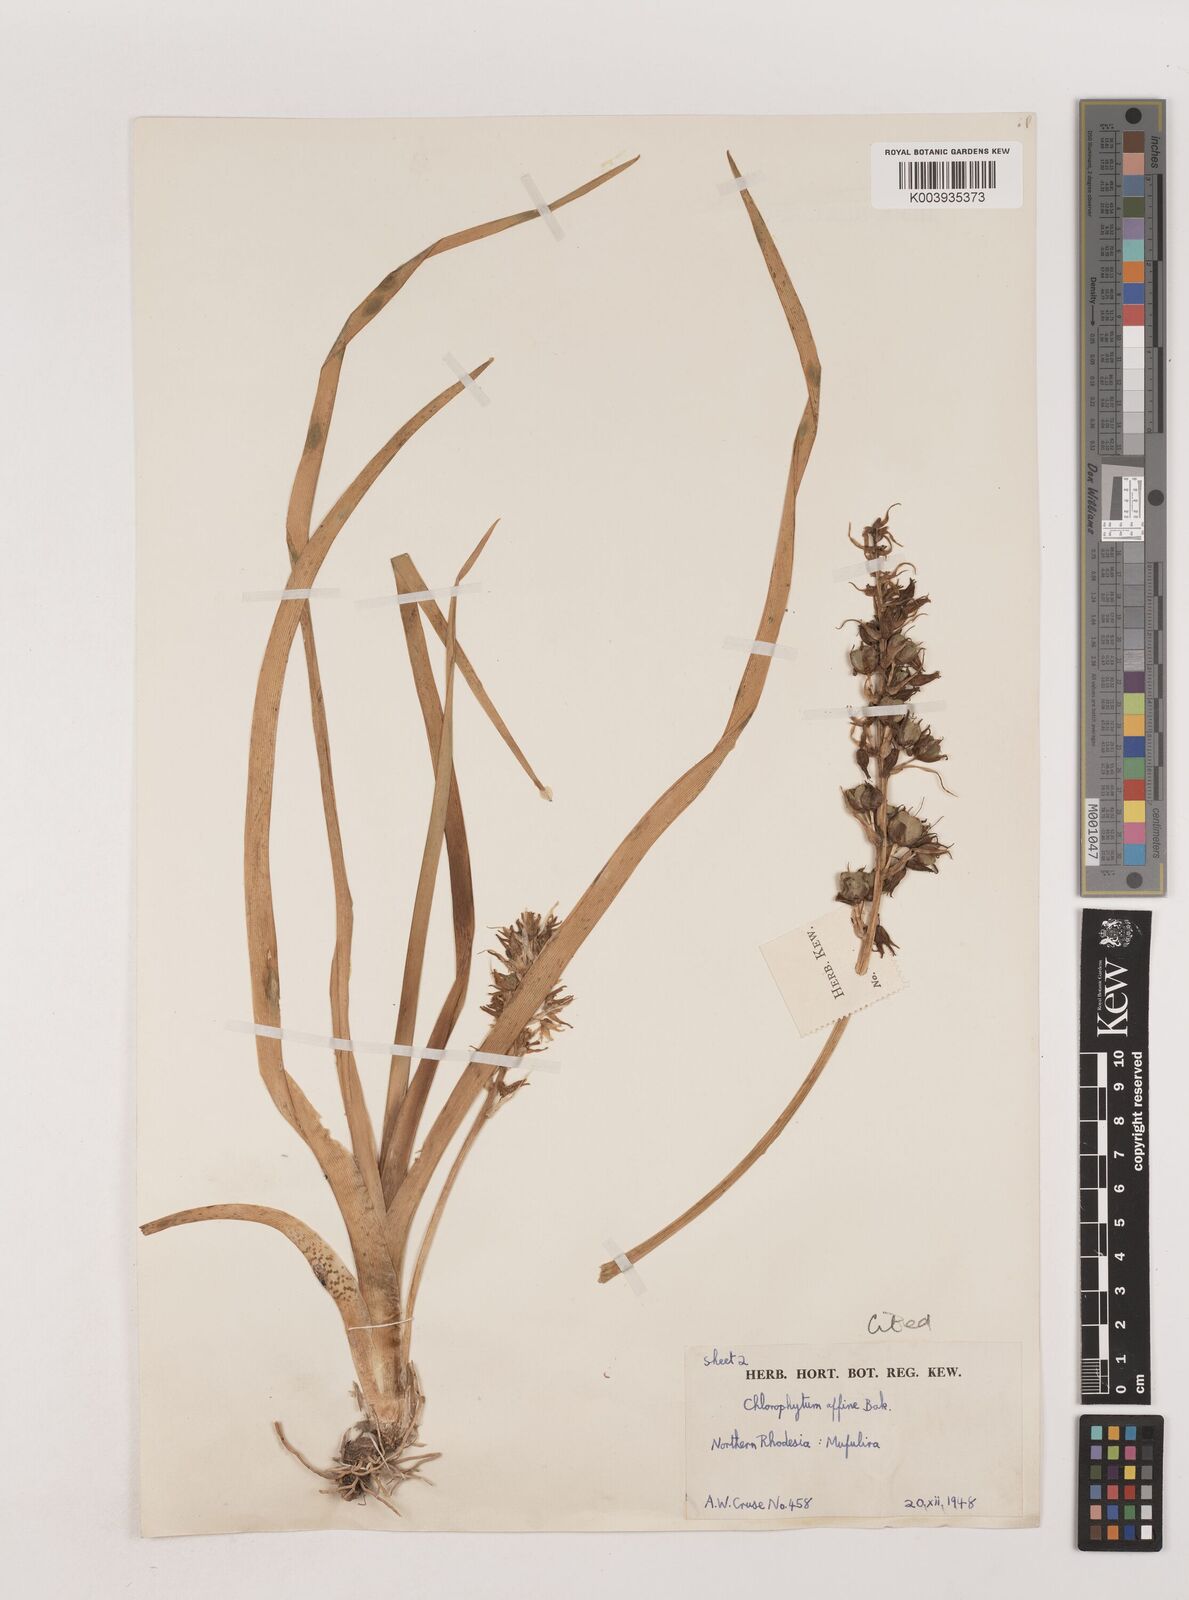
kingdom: Plantae
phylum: Tracheophyta
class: Liliopsida
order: Asparagales
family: Asparagaceae
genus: Chlorophytum
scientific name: Chlorophytum affine
